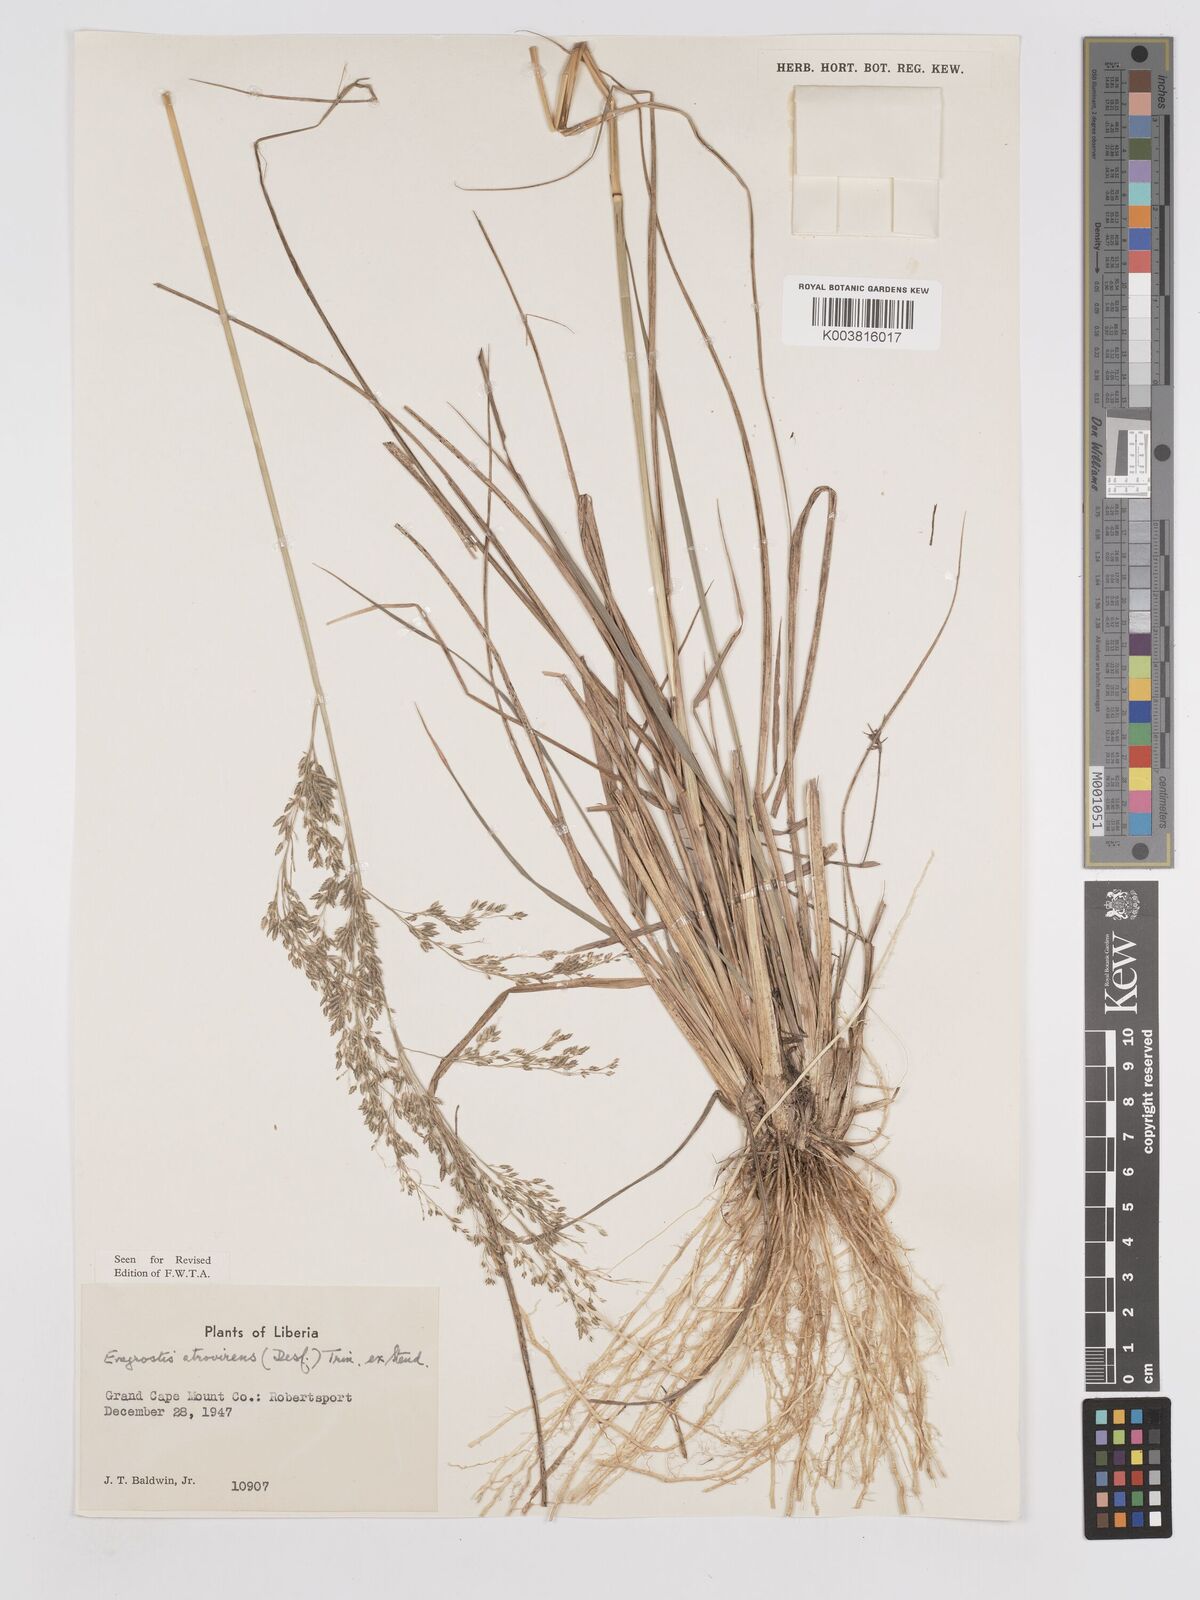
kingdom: Plantae
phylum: Tracheophyta
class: Liliopsida
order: Poales
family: Poaceae
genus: Eragrostis
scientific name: Eragrostis atrovirens
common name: Thalia lovegrass
